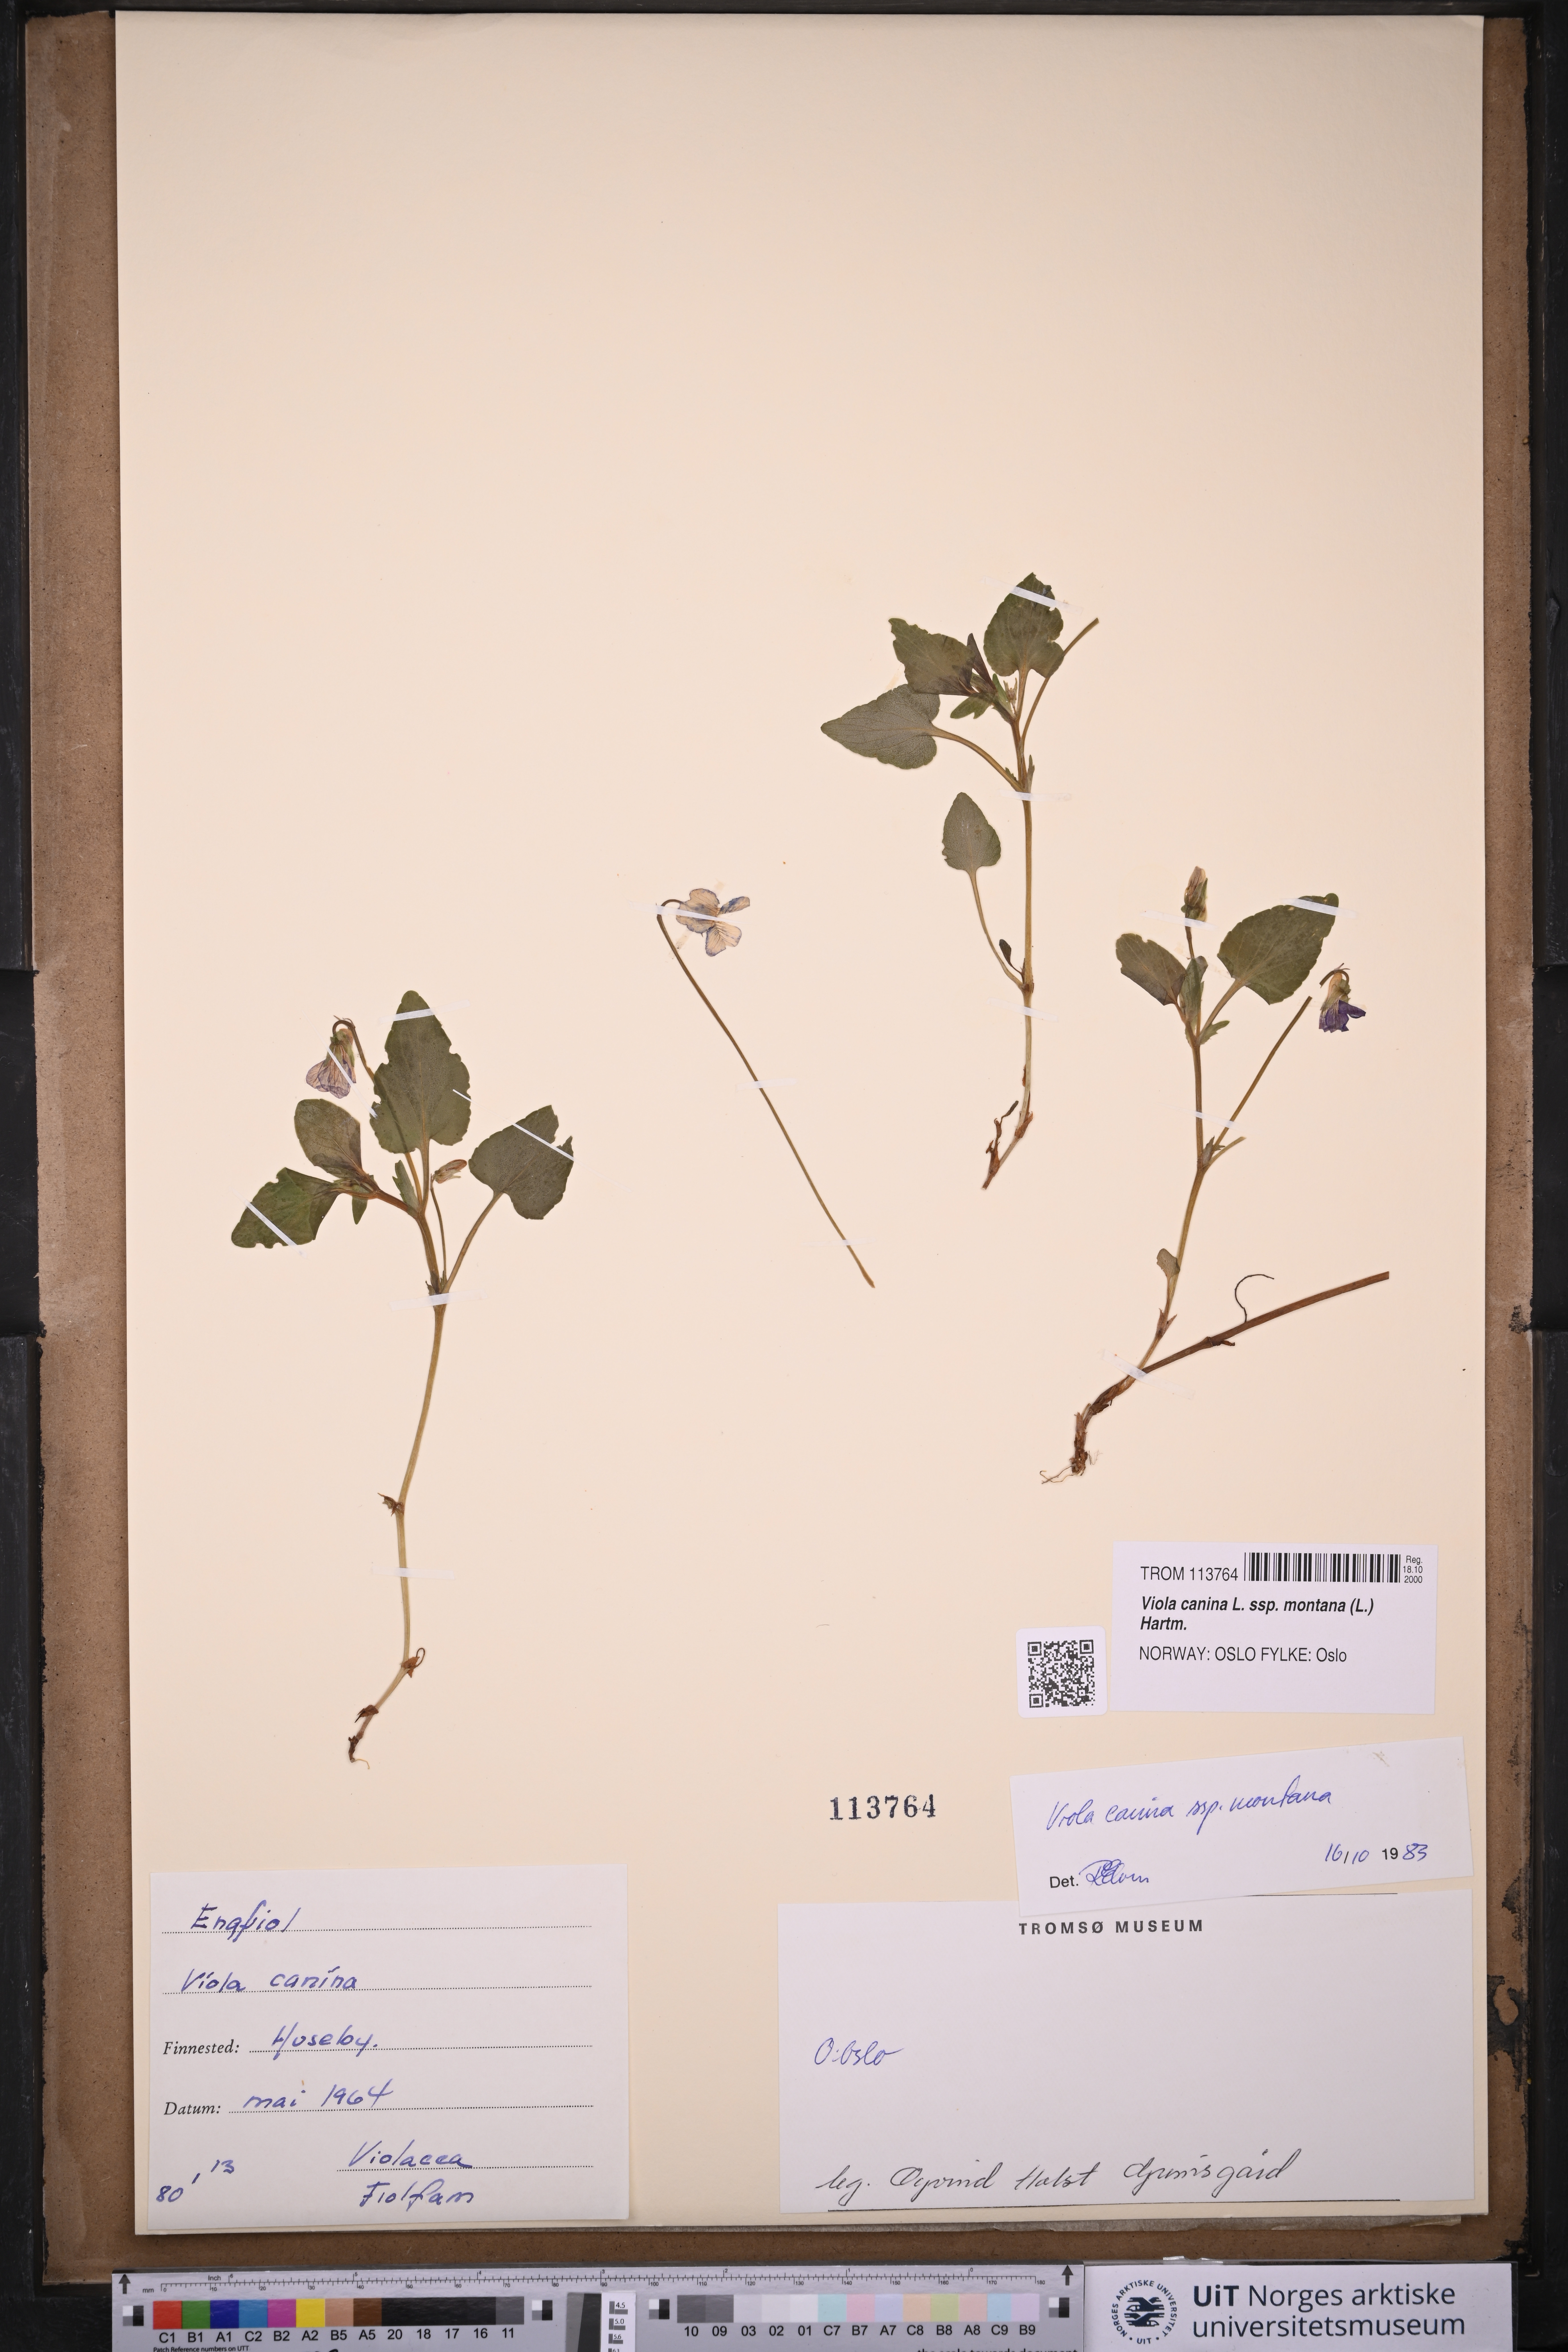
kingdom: Plantae
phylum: Tracheophyta
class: Magnoliopsida
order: Malpighiales
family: Violaceae
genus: Viola
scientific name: Viola ruppii
